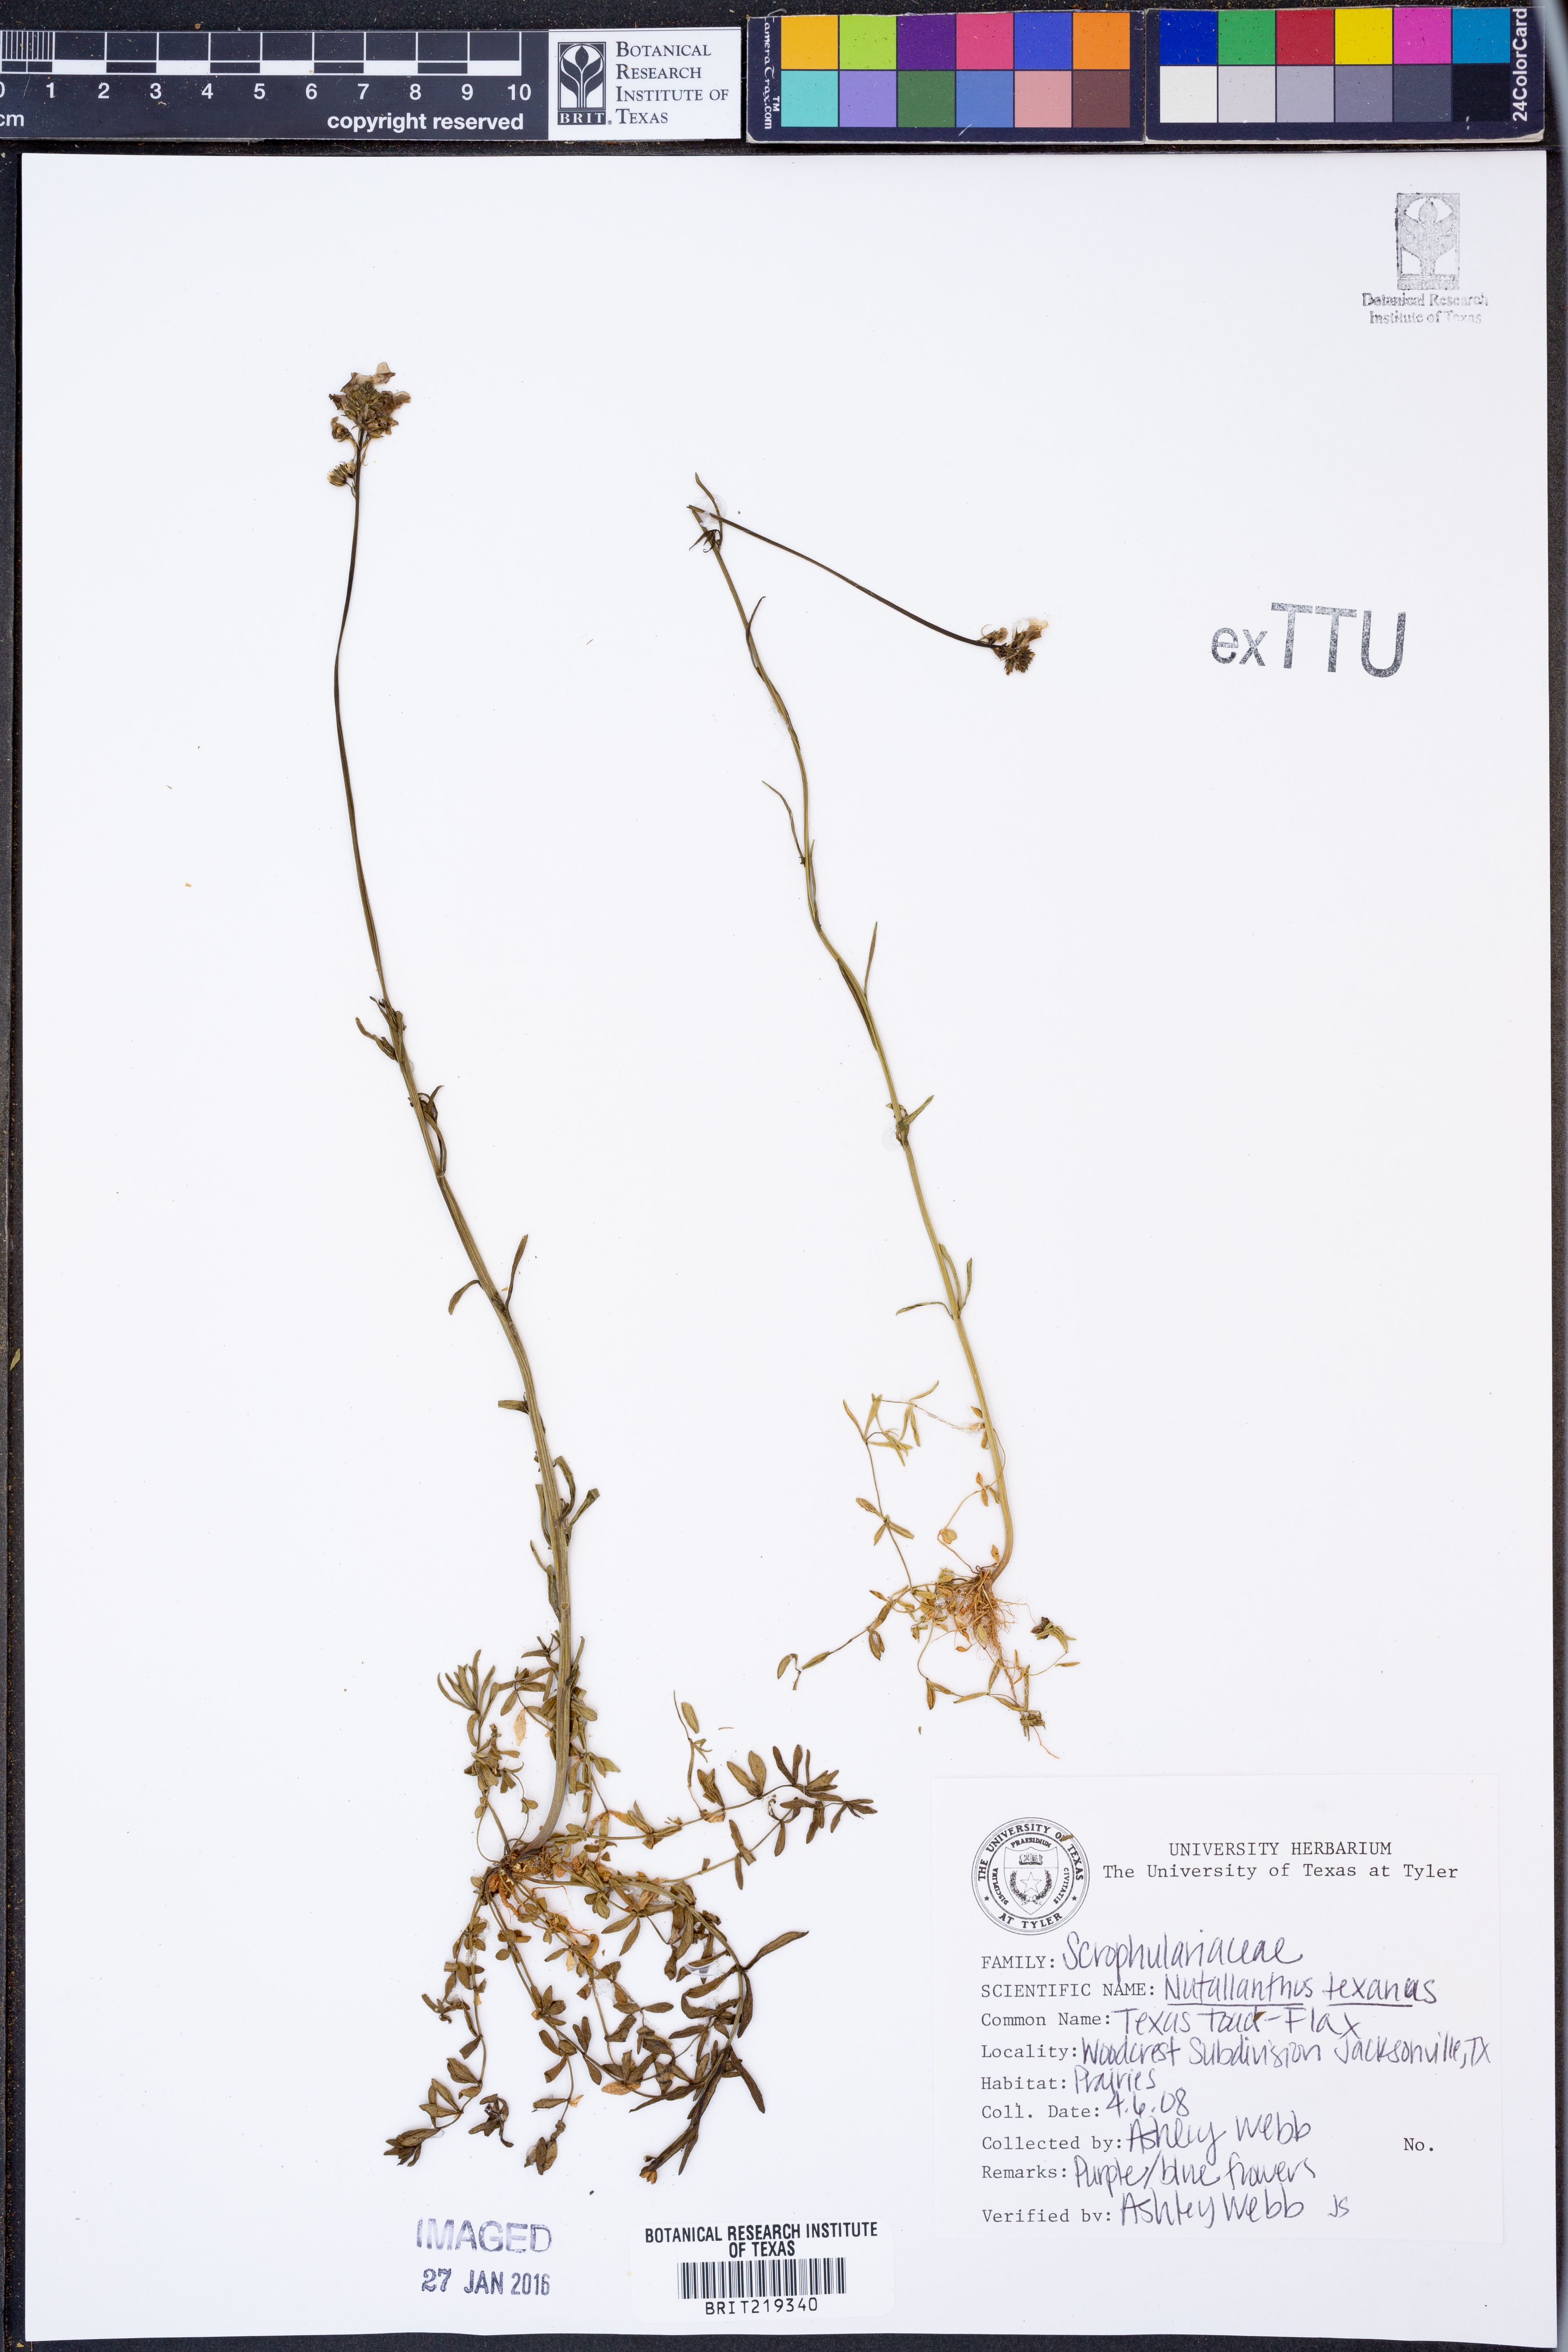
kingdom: Plantae
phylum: Tracheophyta
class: Magnoliopsida
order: Lamiales
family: Plantaginaceae
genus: Nuttallanthus
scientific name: Nuttallanthus texanus
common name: Texas toadflax
